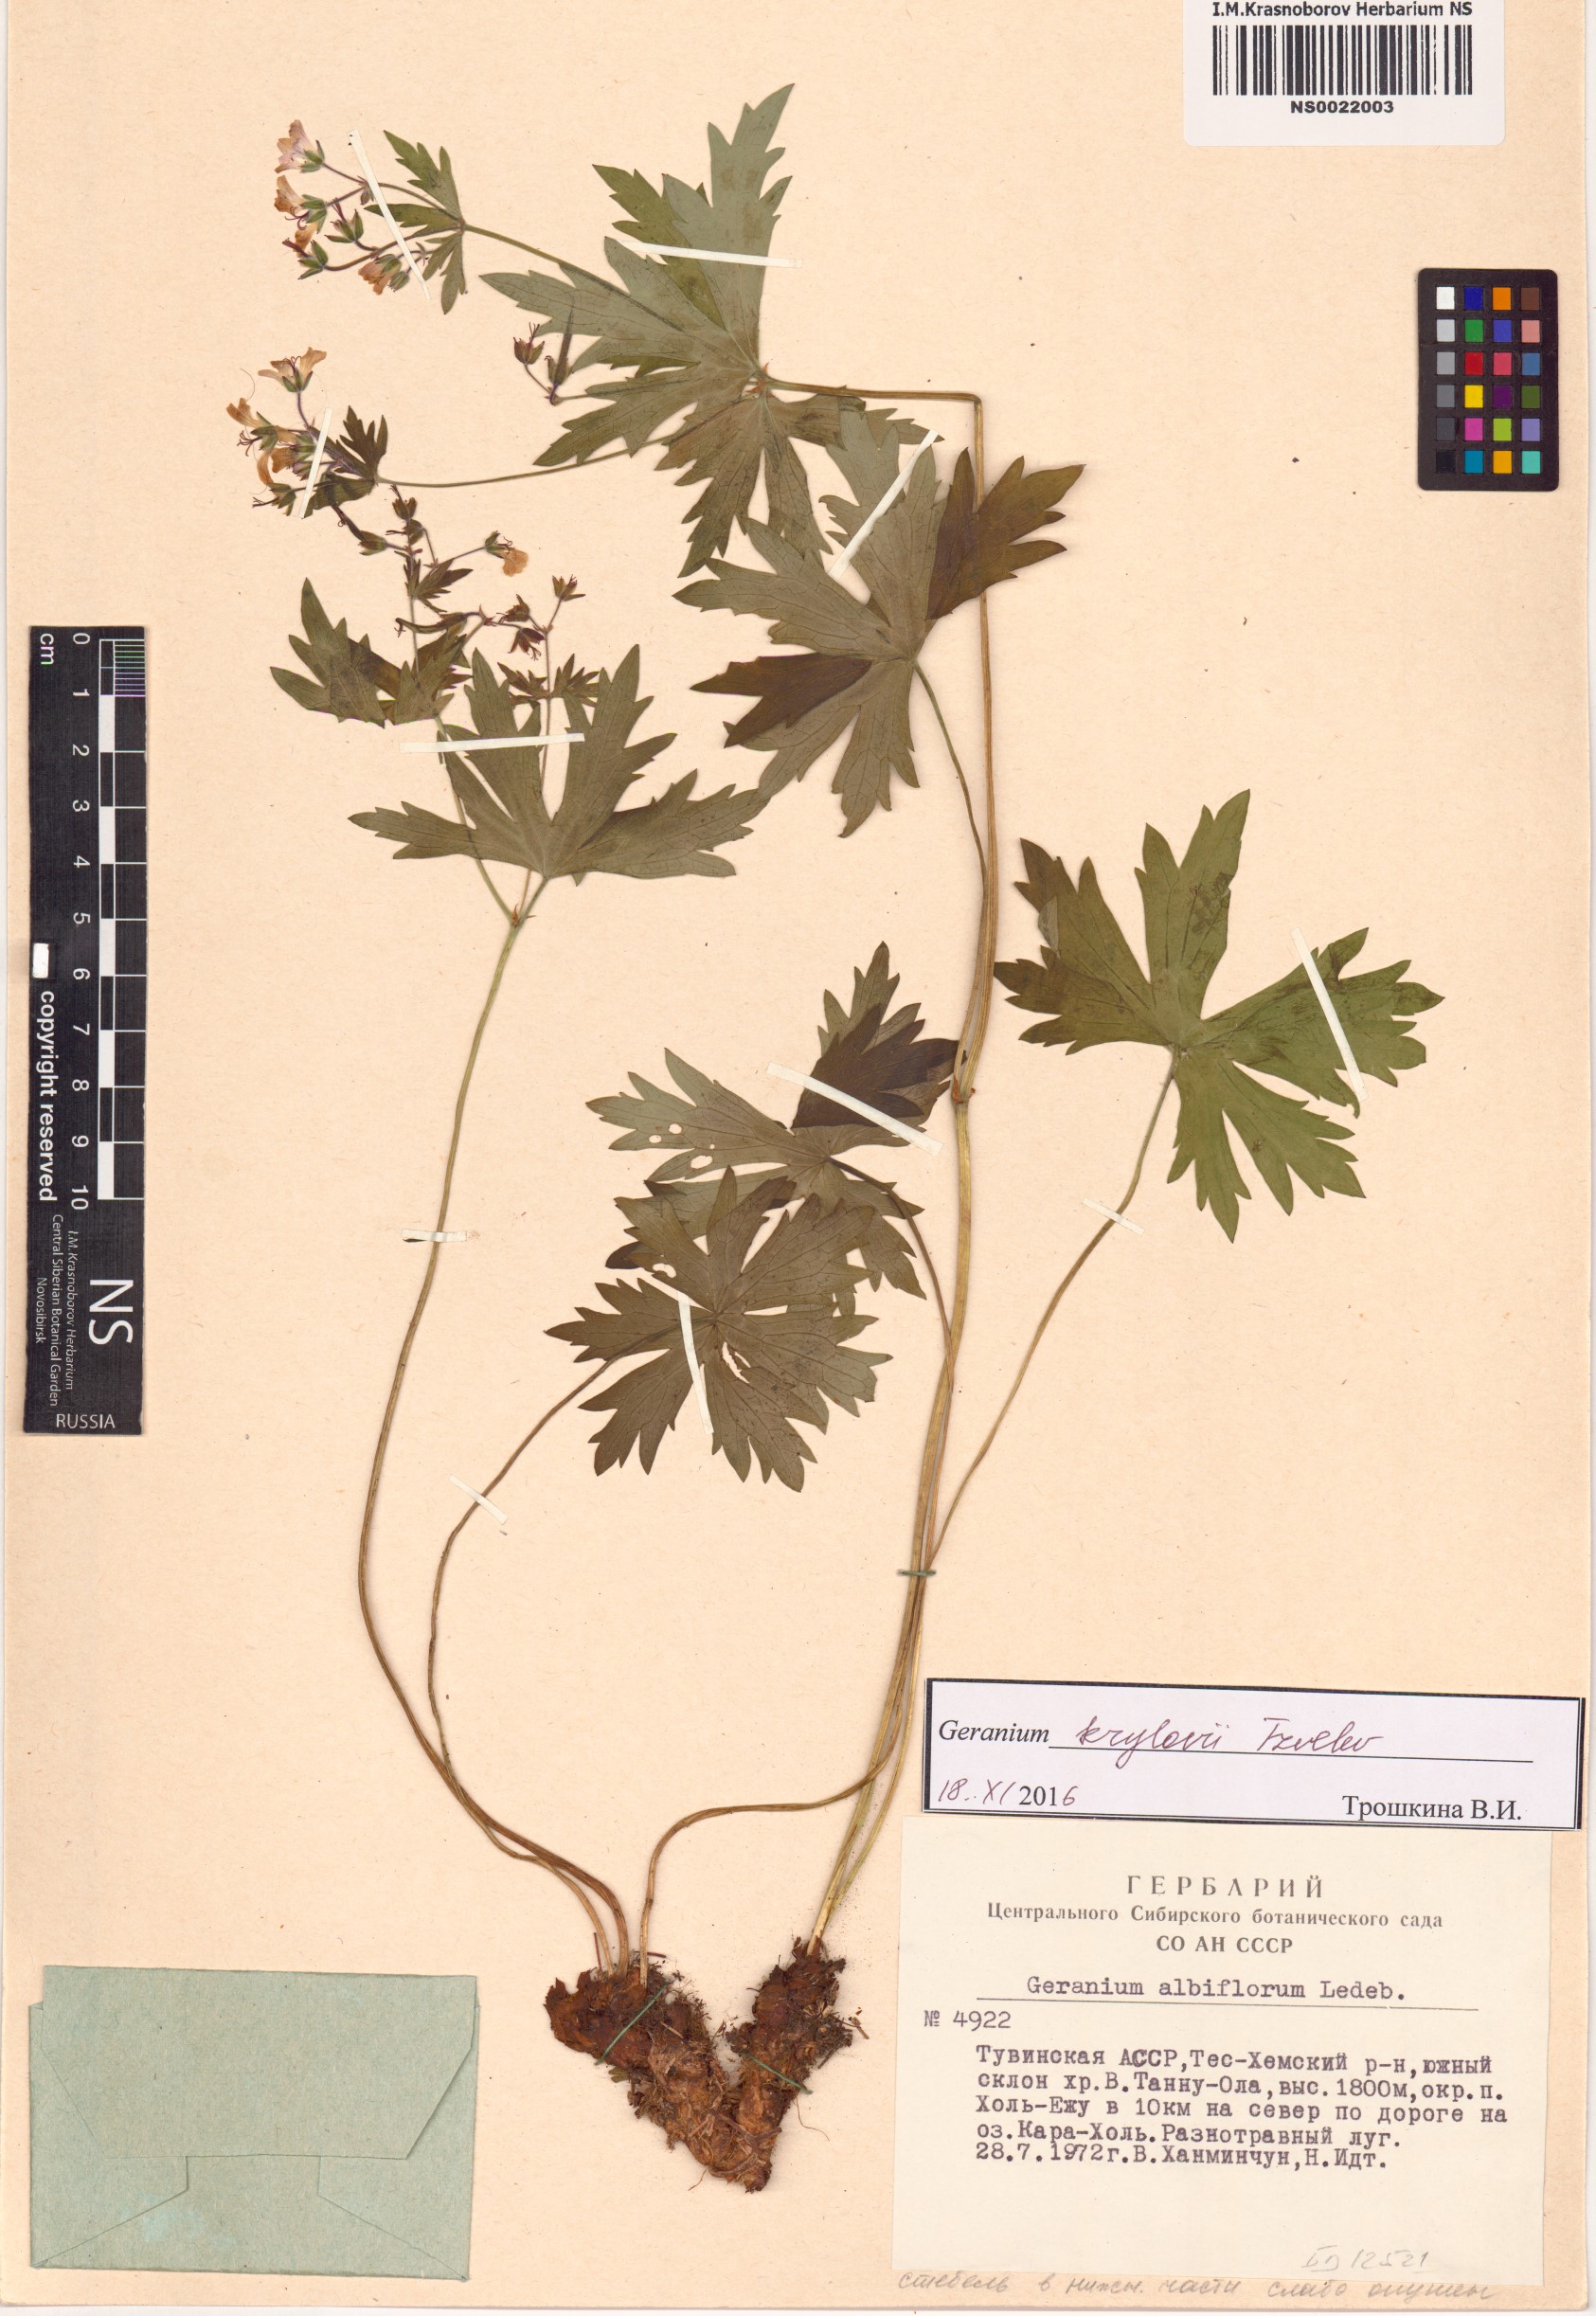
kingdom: Plantae
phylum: Tracheophyta
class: Magnoliopsida
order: Geraniales
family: Geraniaceae
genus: Geranium
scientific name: Geranium sylvaticum
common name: Wood crane's-bill
